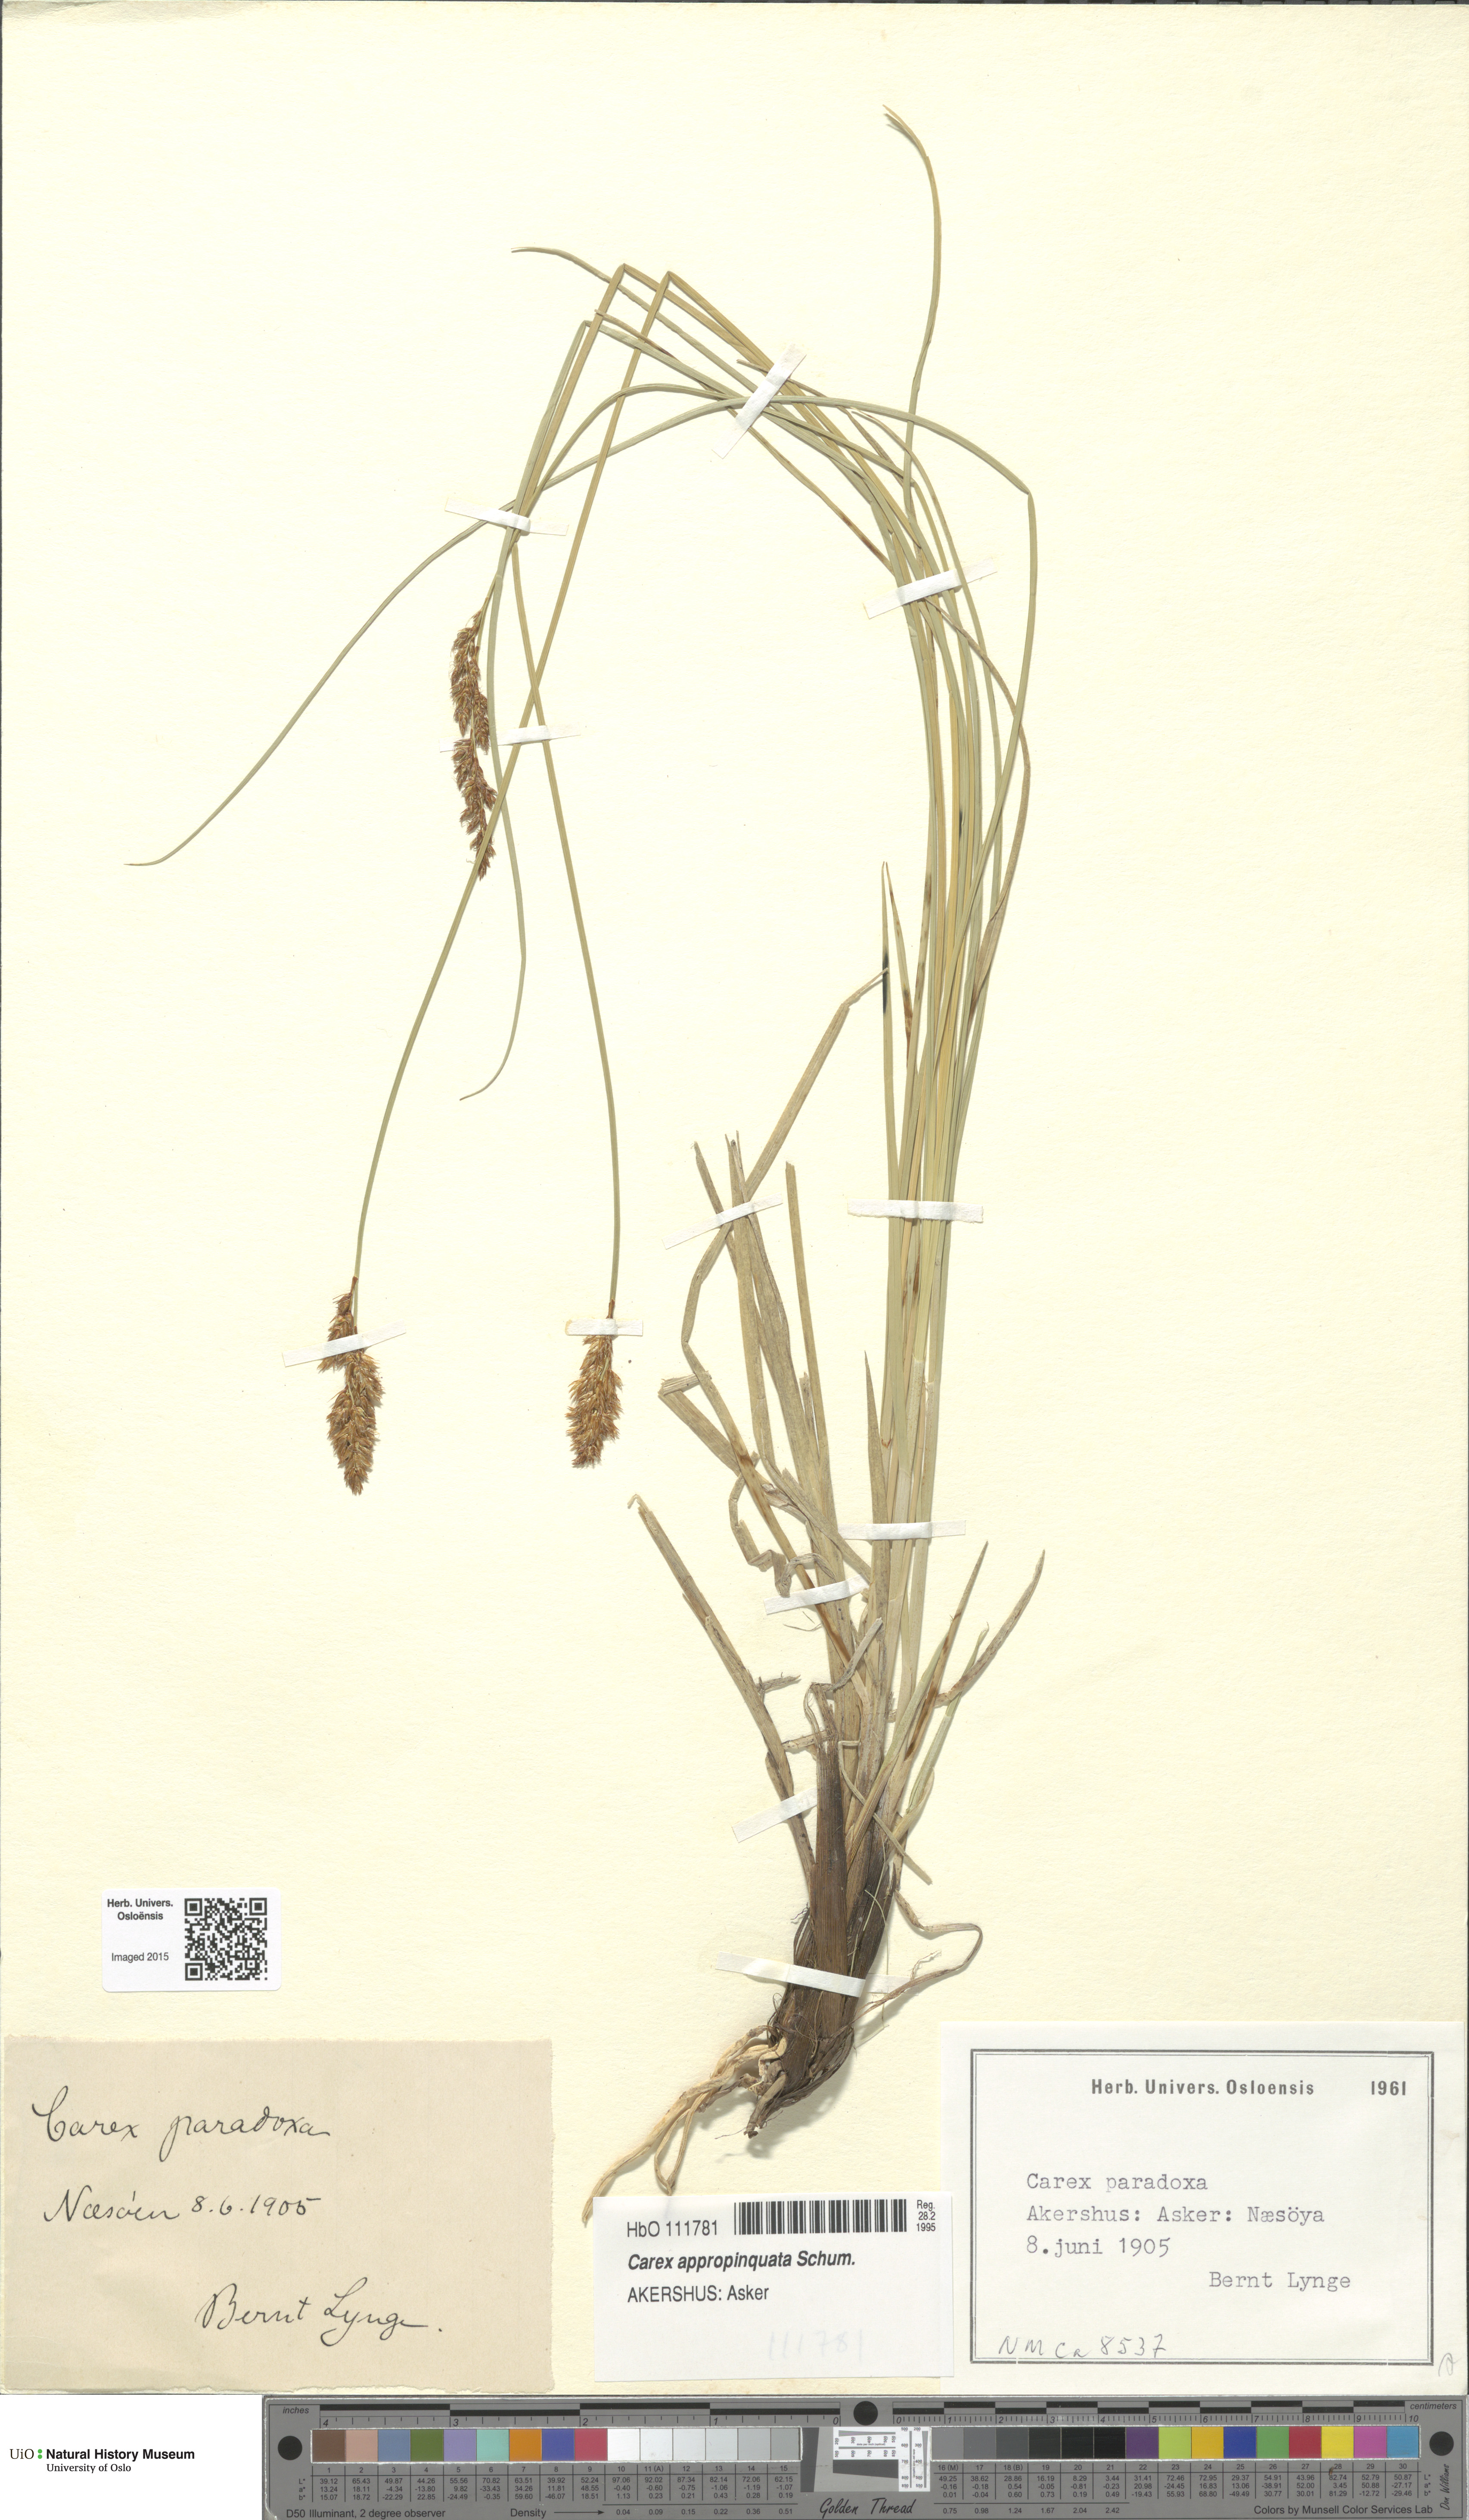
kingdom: Plantae
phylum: Tracheophyta
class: Liliopsida
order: Poales
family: Cyperaceae
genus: Carex
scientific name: Carex appropinquata
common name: Fibrous tussock-sedge
